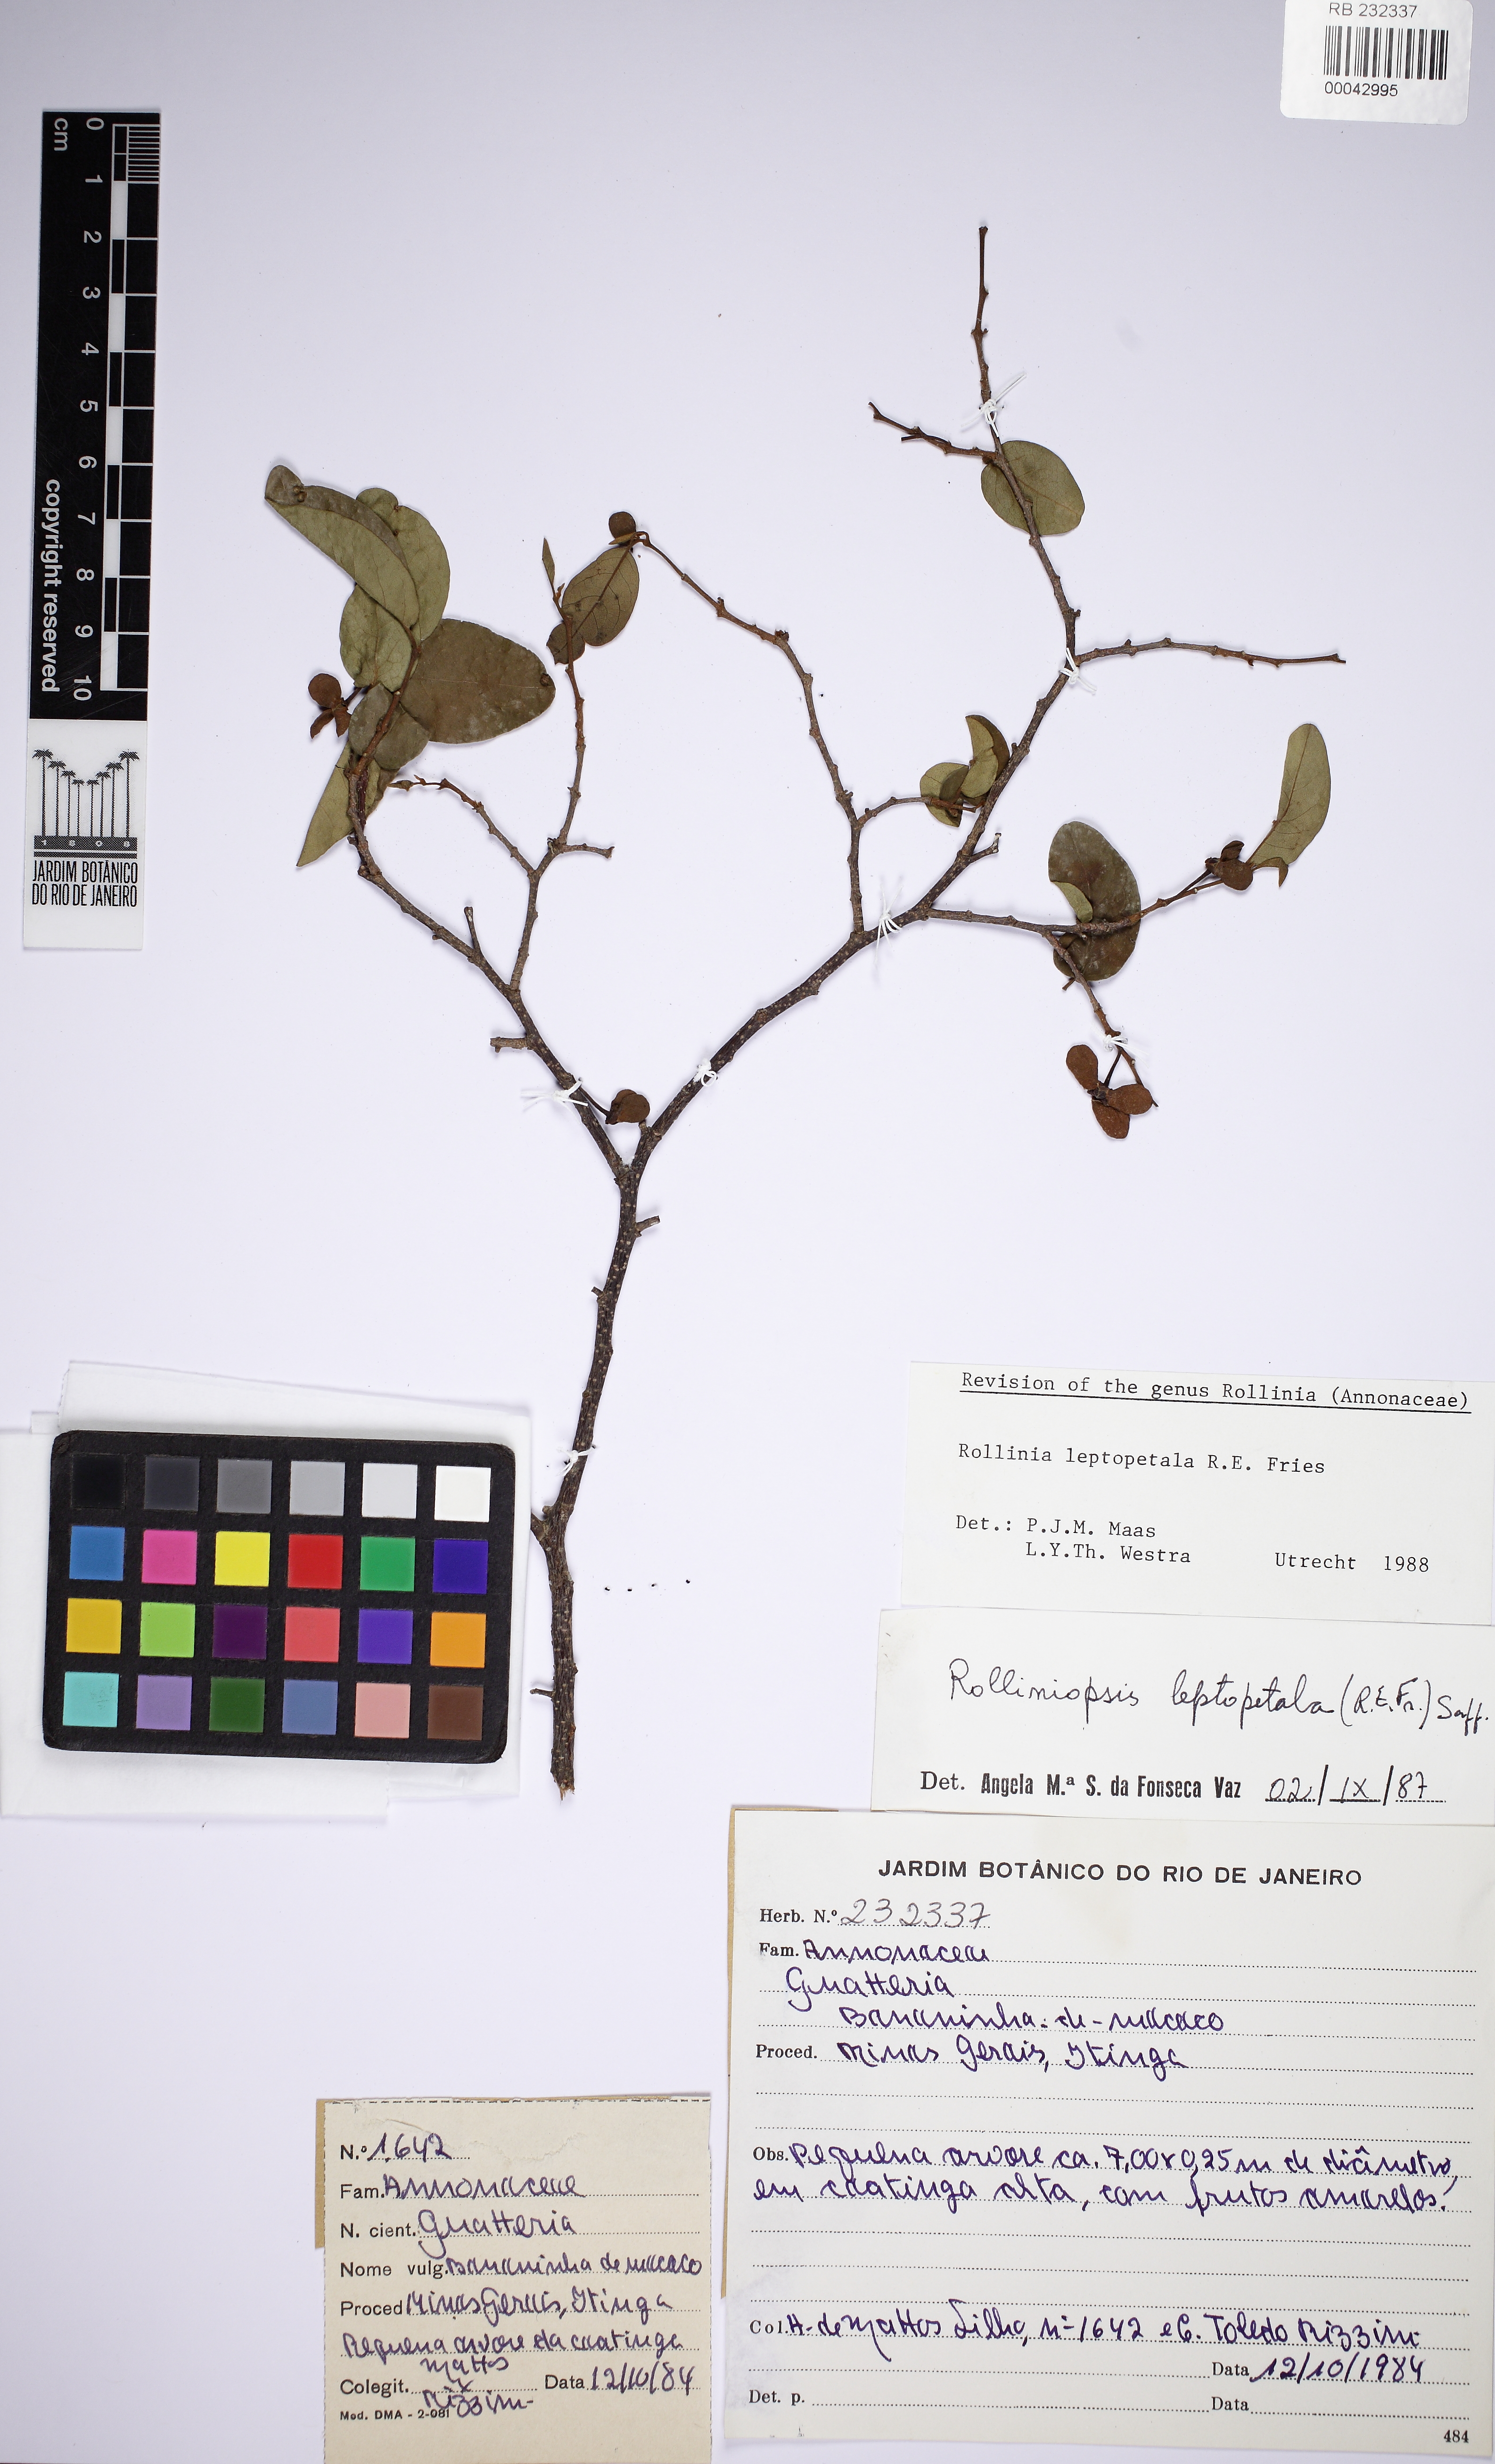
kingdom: Plantae
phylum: Tracheophyta
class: Magnoliopsida
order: Magnoliales
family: Annonaceae
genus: Annona
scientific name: Annona leptopetala
